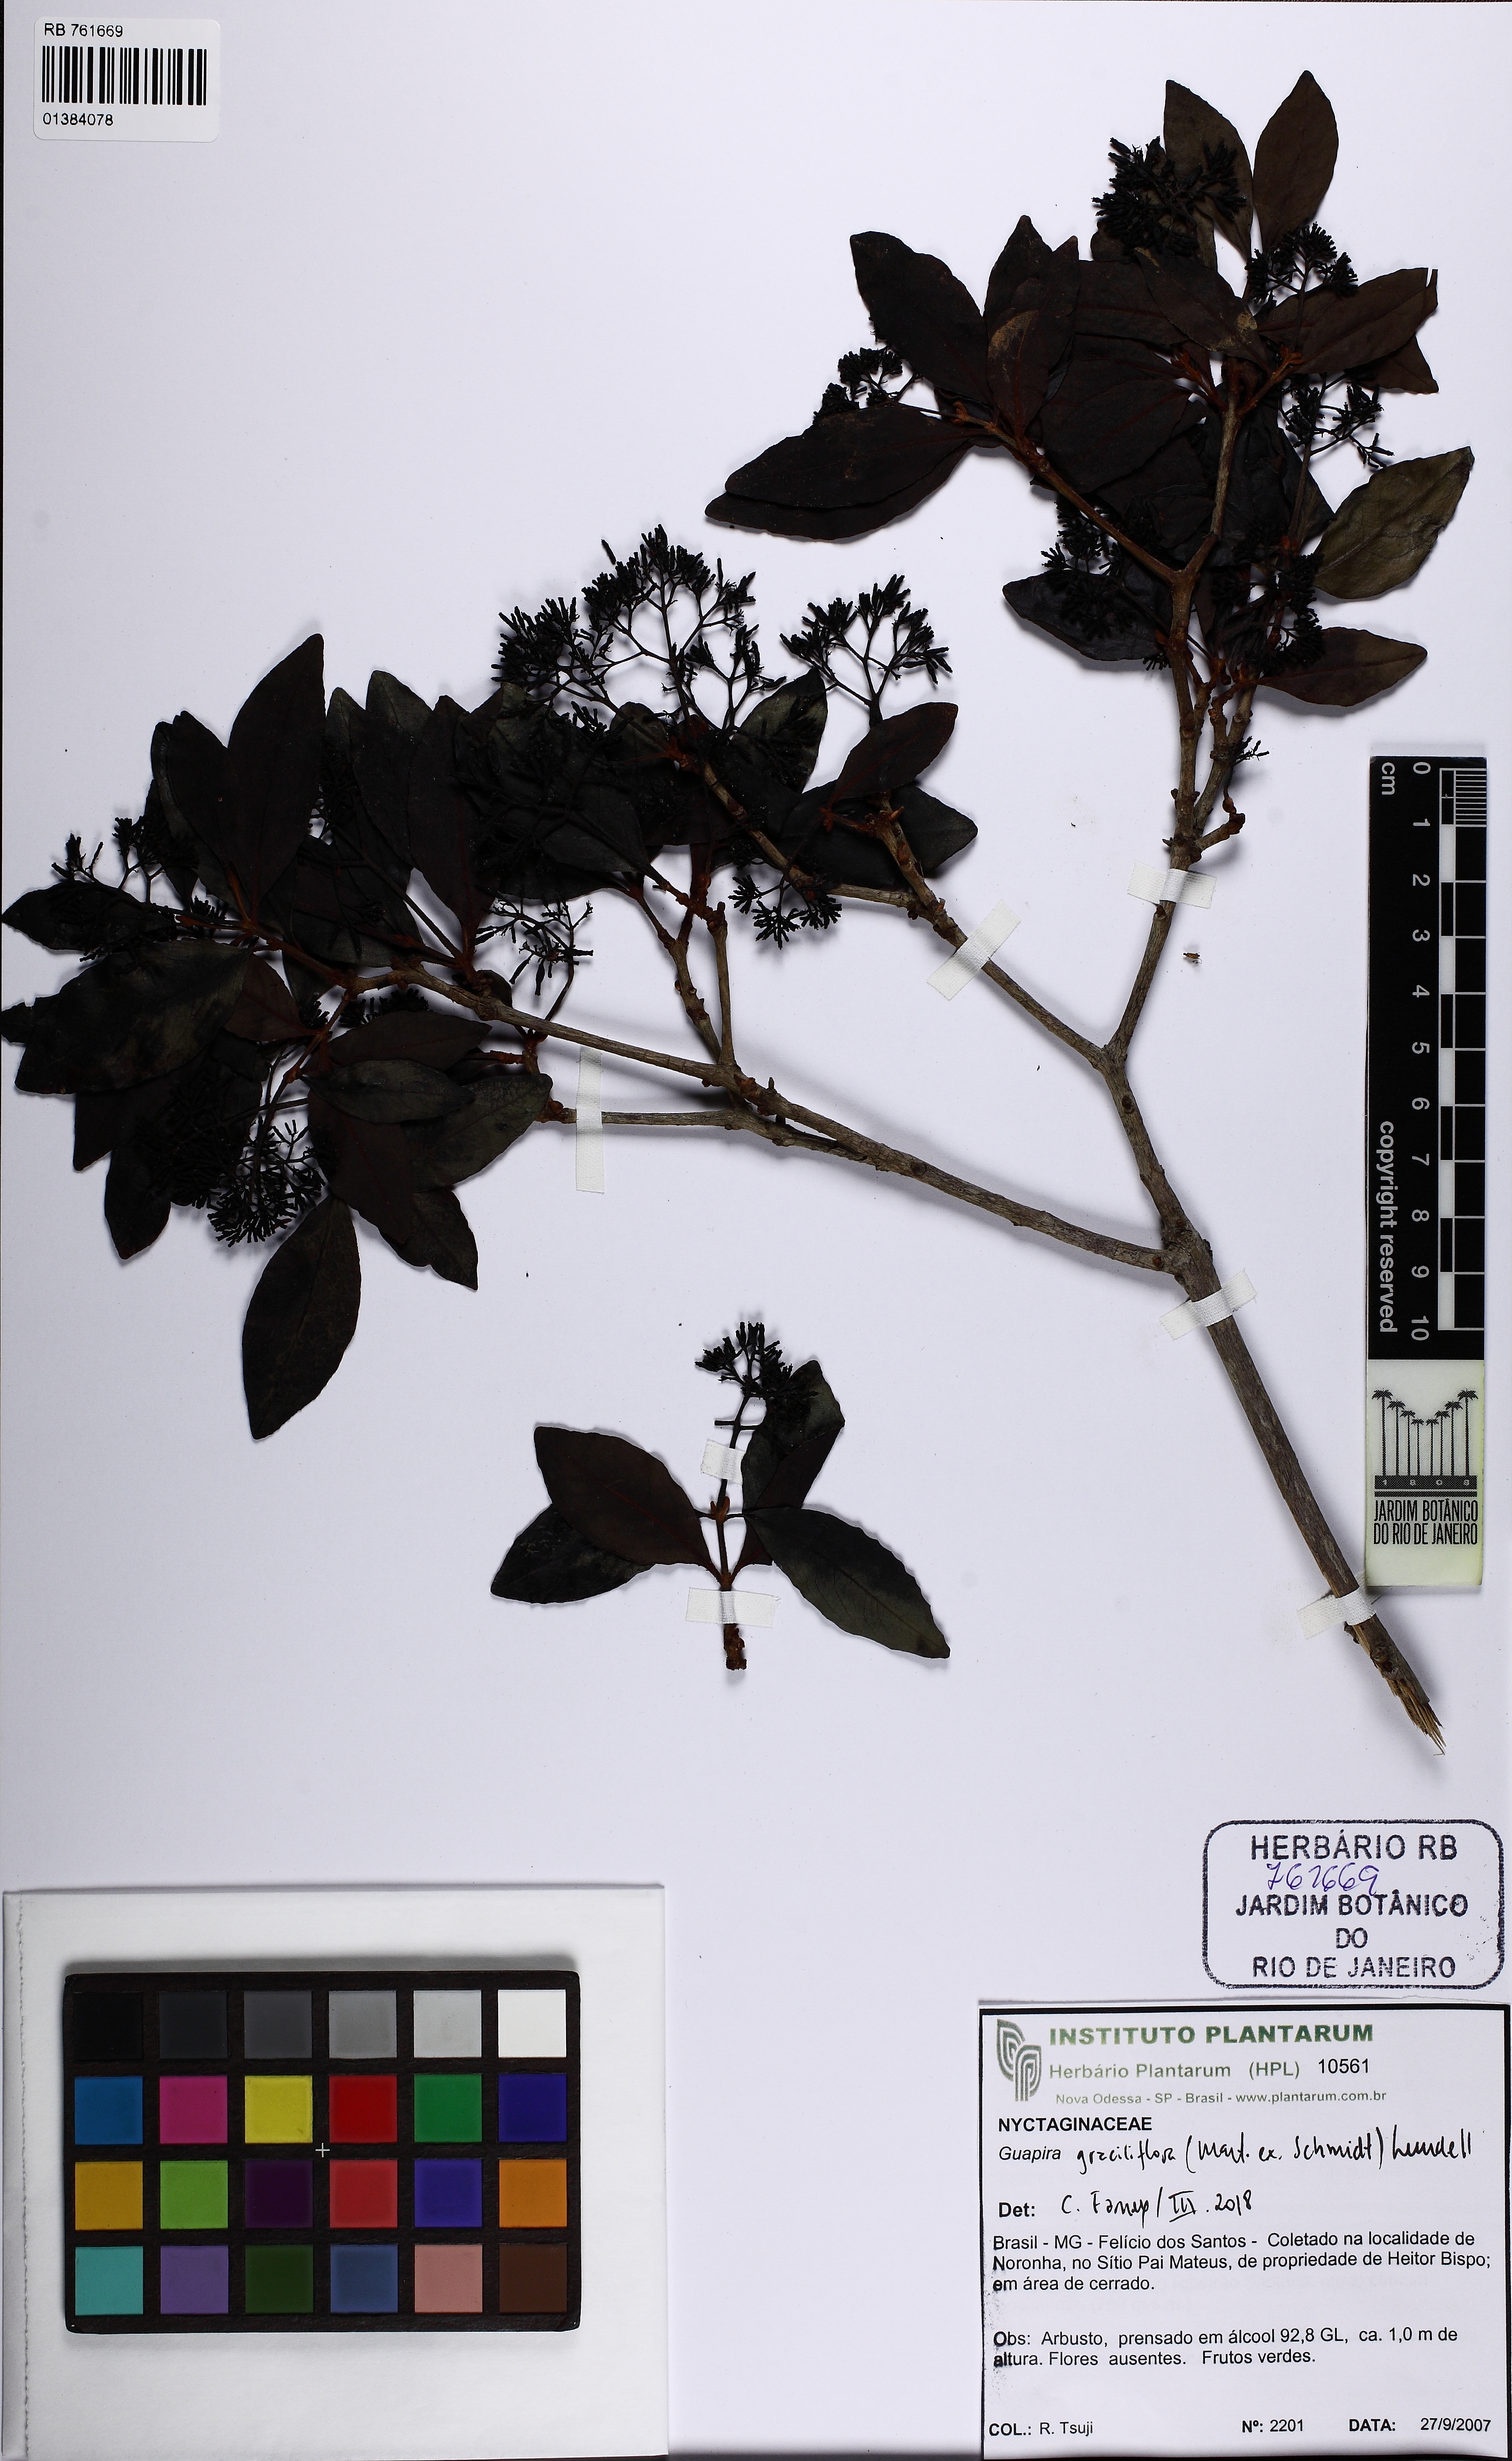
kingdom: Plantae
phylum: Tracheophyta
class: Magnoliopsida
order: Caryophyllales
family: Nyctaginaceae
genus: Guapira
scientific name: Guapira graciliflora
